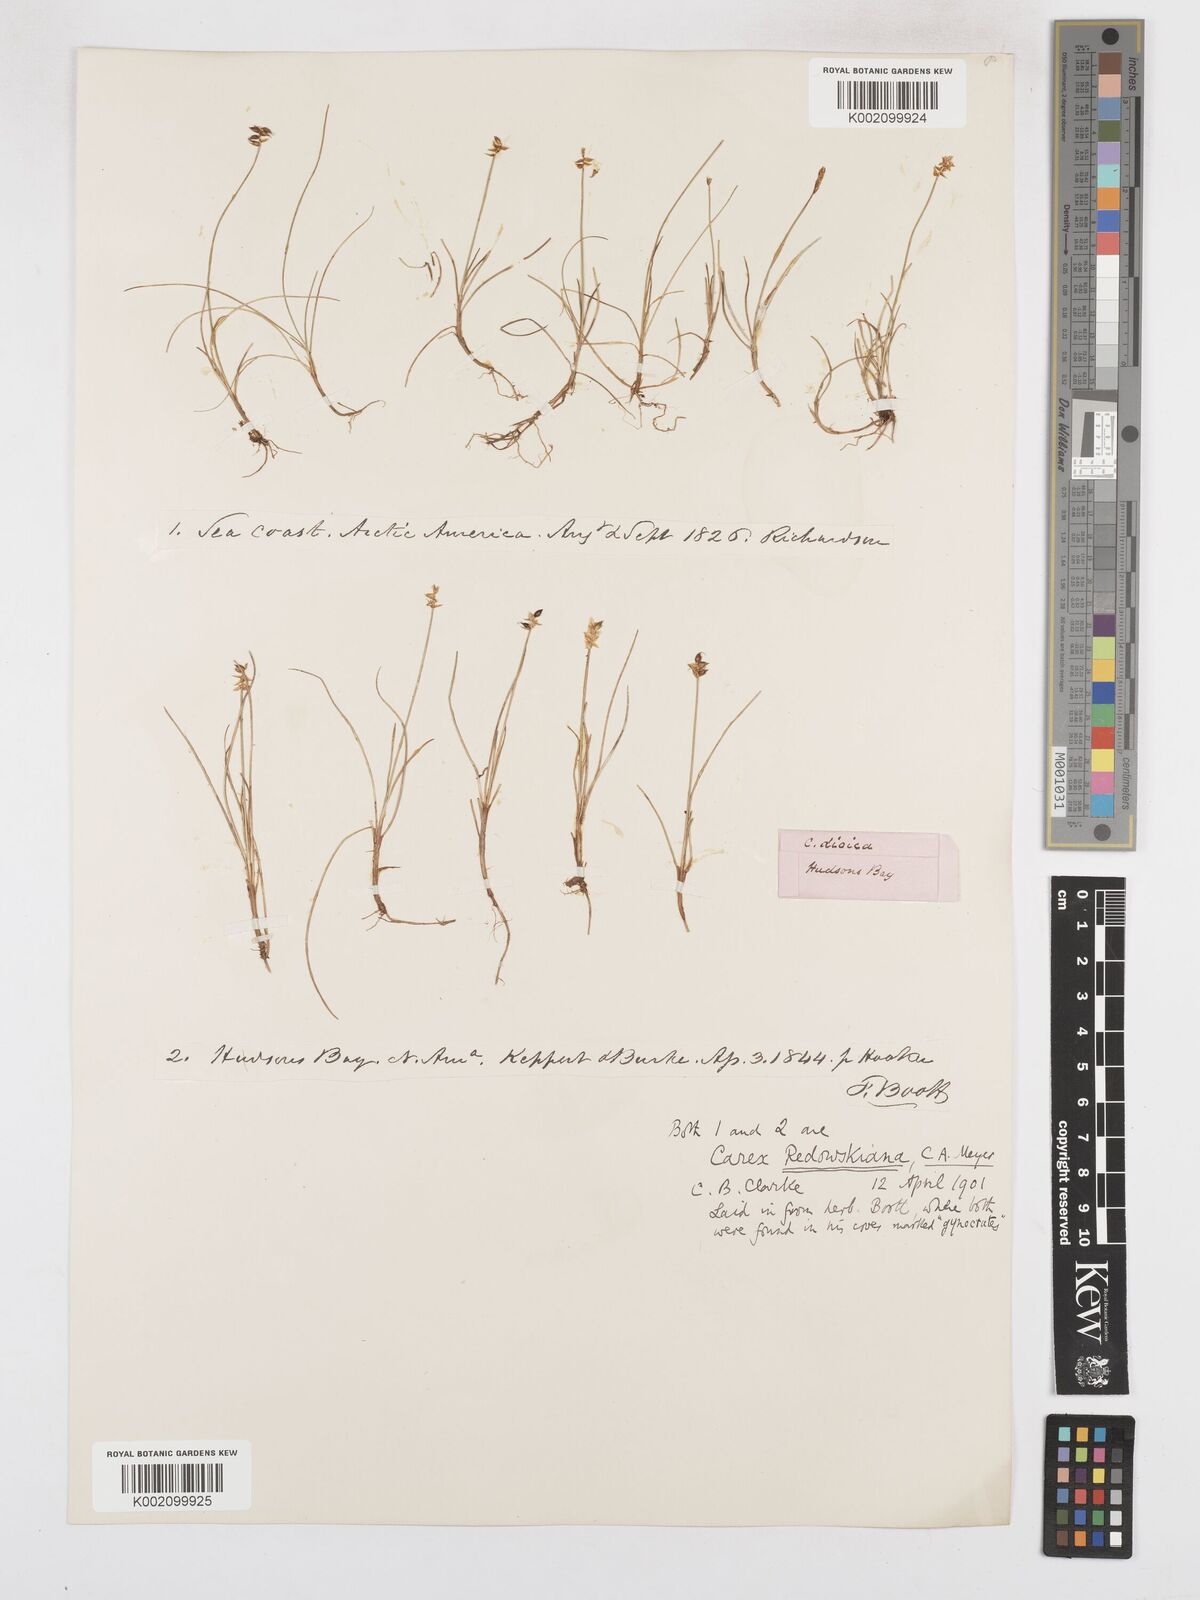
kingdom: Plantae
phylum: Tracheophyta
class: Liliopsida
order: Poales
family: Cyperaceae
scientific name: Cyperaceae
